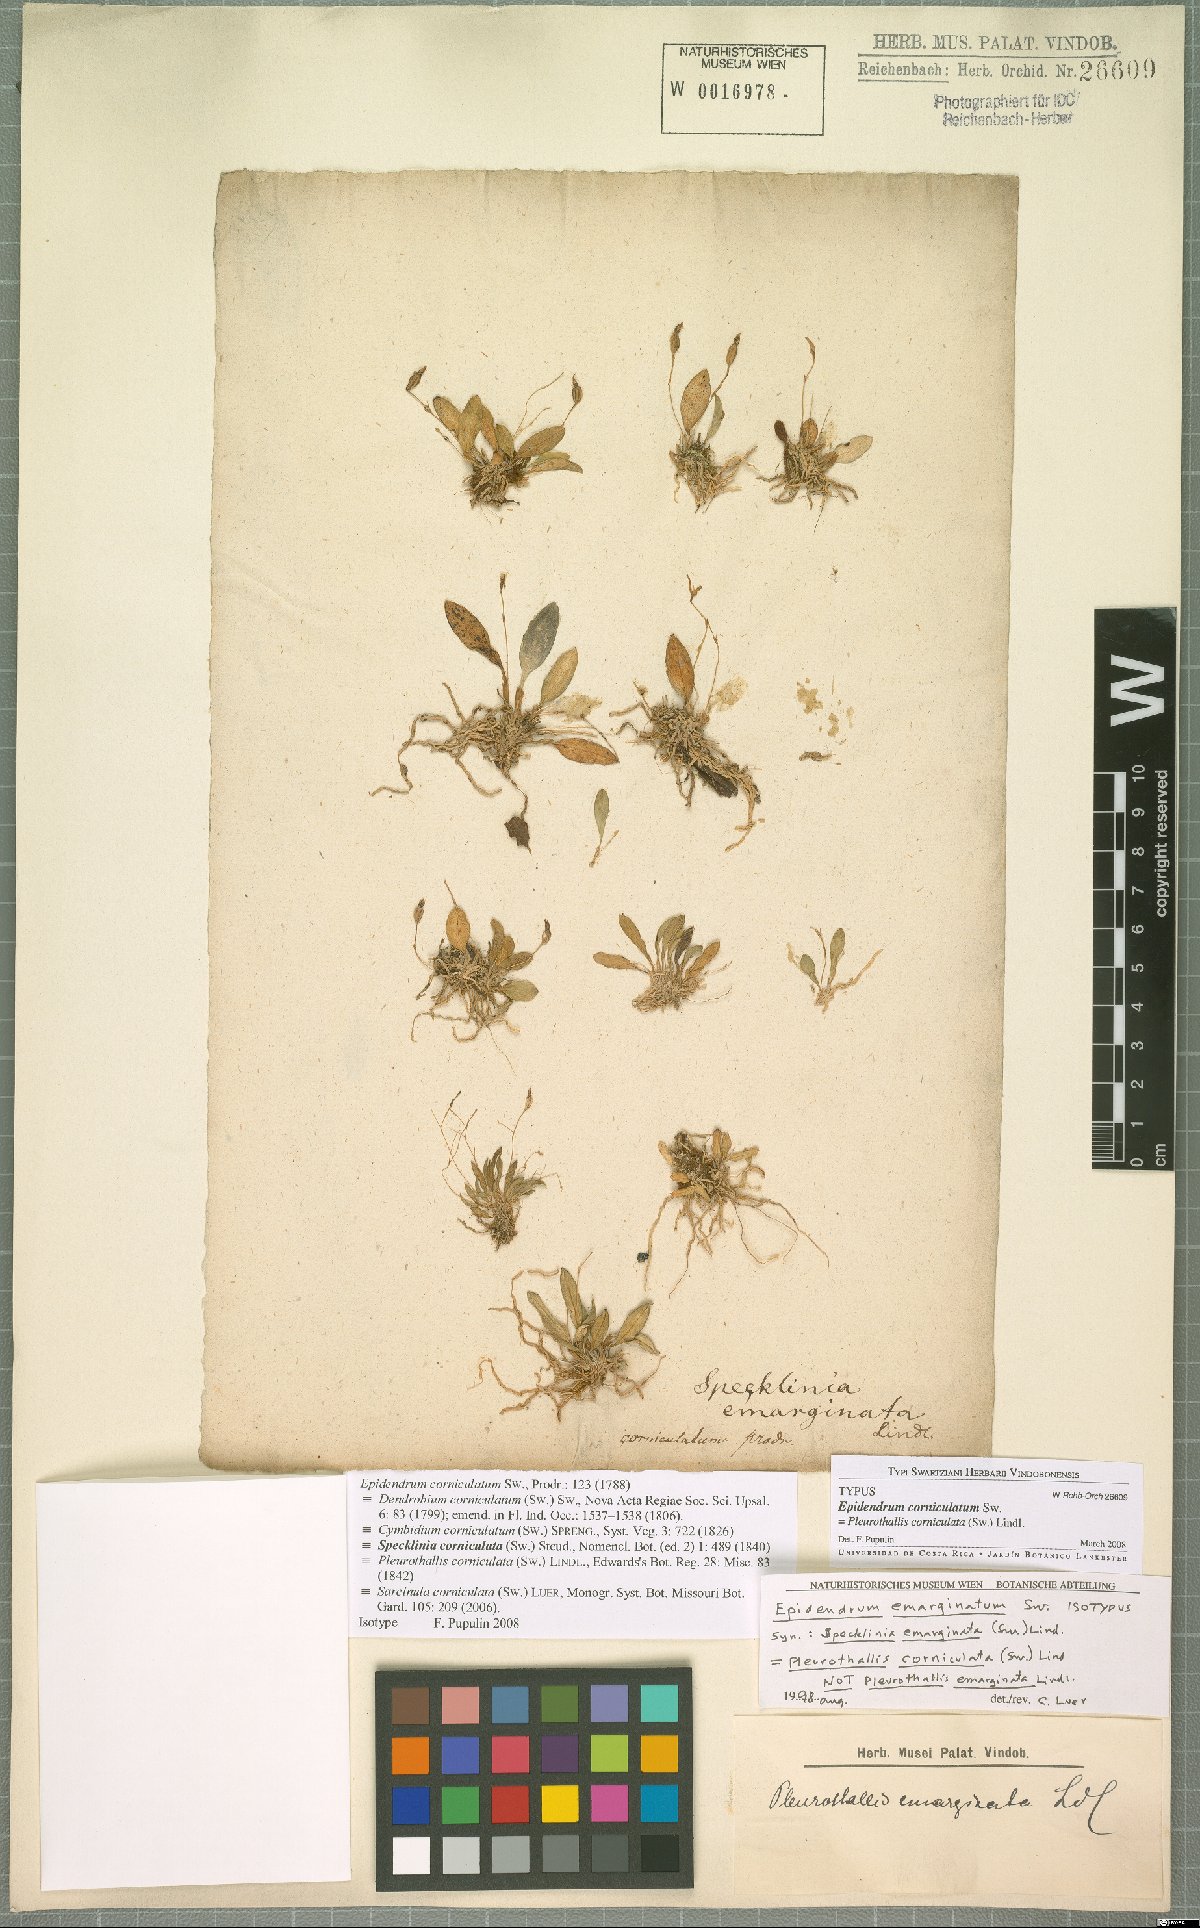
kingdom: Plantae
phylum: Tracheophyta
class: Liliopsida
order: Asparagales
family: Orchidaceae
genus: Specklinia
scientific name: Specklinia corniculata
